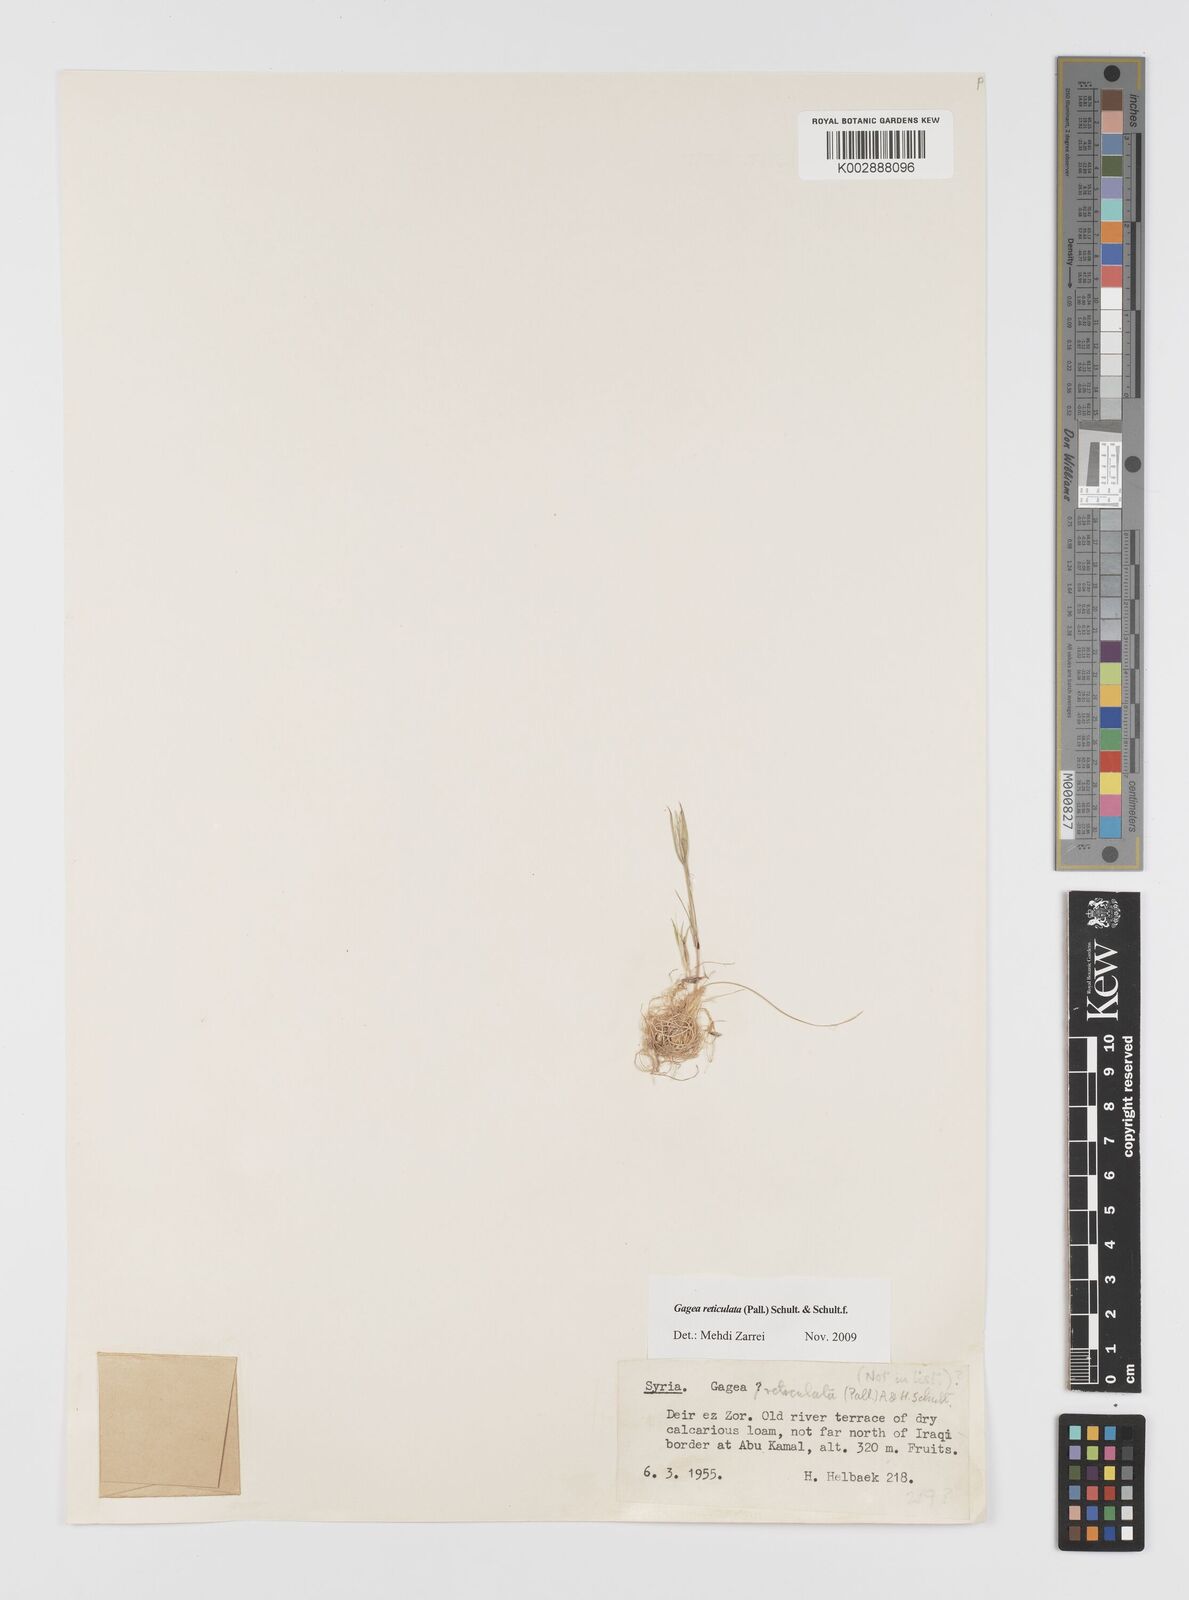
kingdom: Plantae
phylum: Tracheophyta
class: Liliopsida
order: Liliales
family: Liliaceae
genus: Gagea
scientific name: Gagea reticulata
